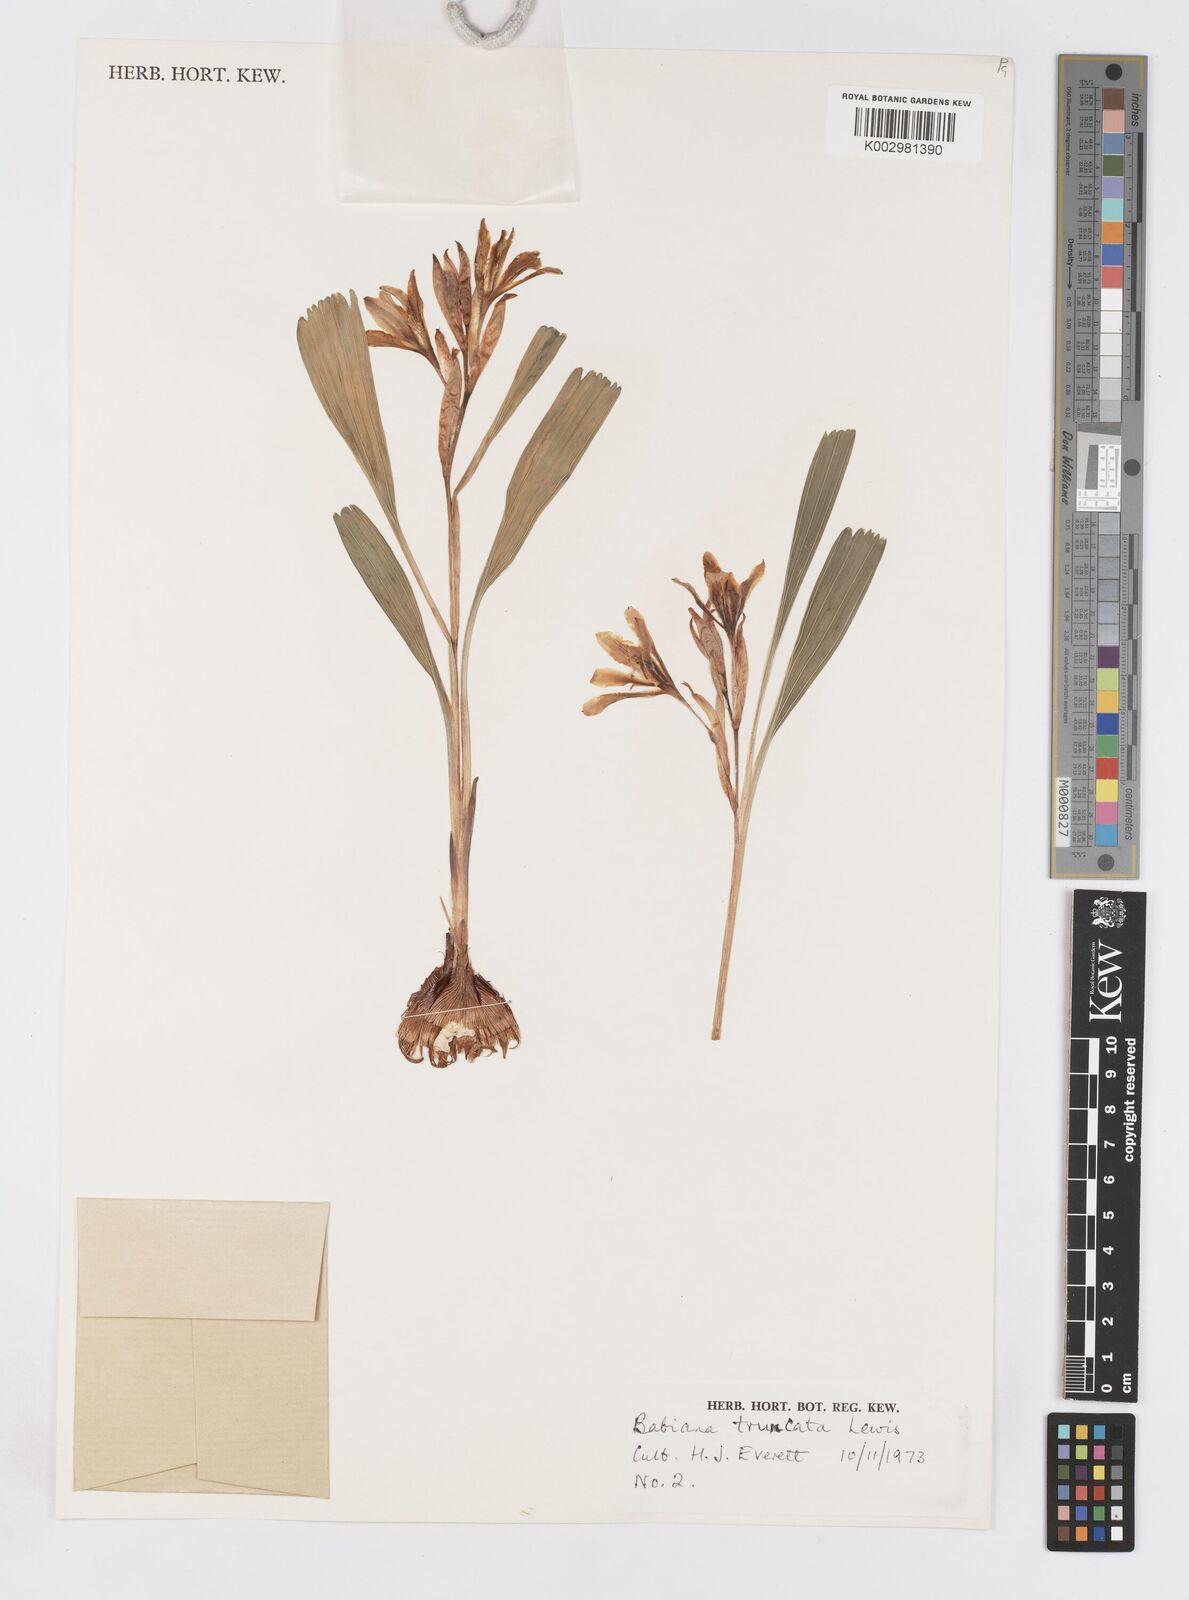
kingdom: Plantae
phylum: Tracheophyta
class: Liliopsida
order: Asparagales
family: Iridaceae
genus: Babiana
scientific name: Babiana flabellifolia
